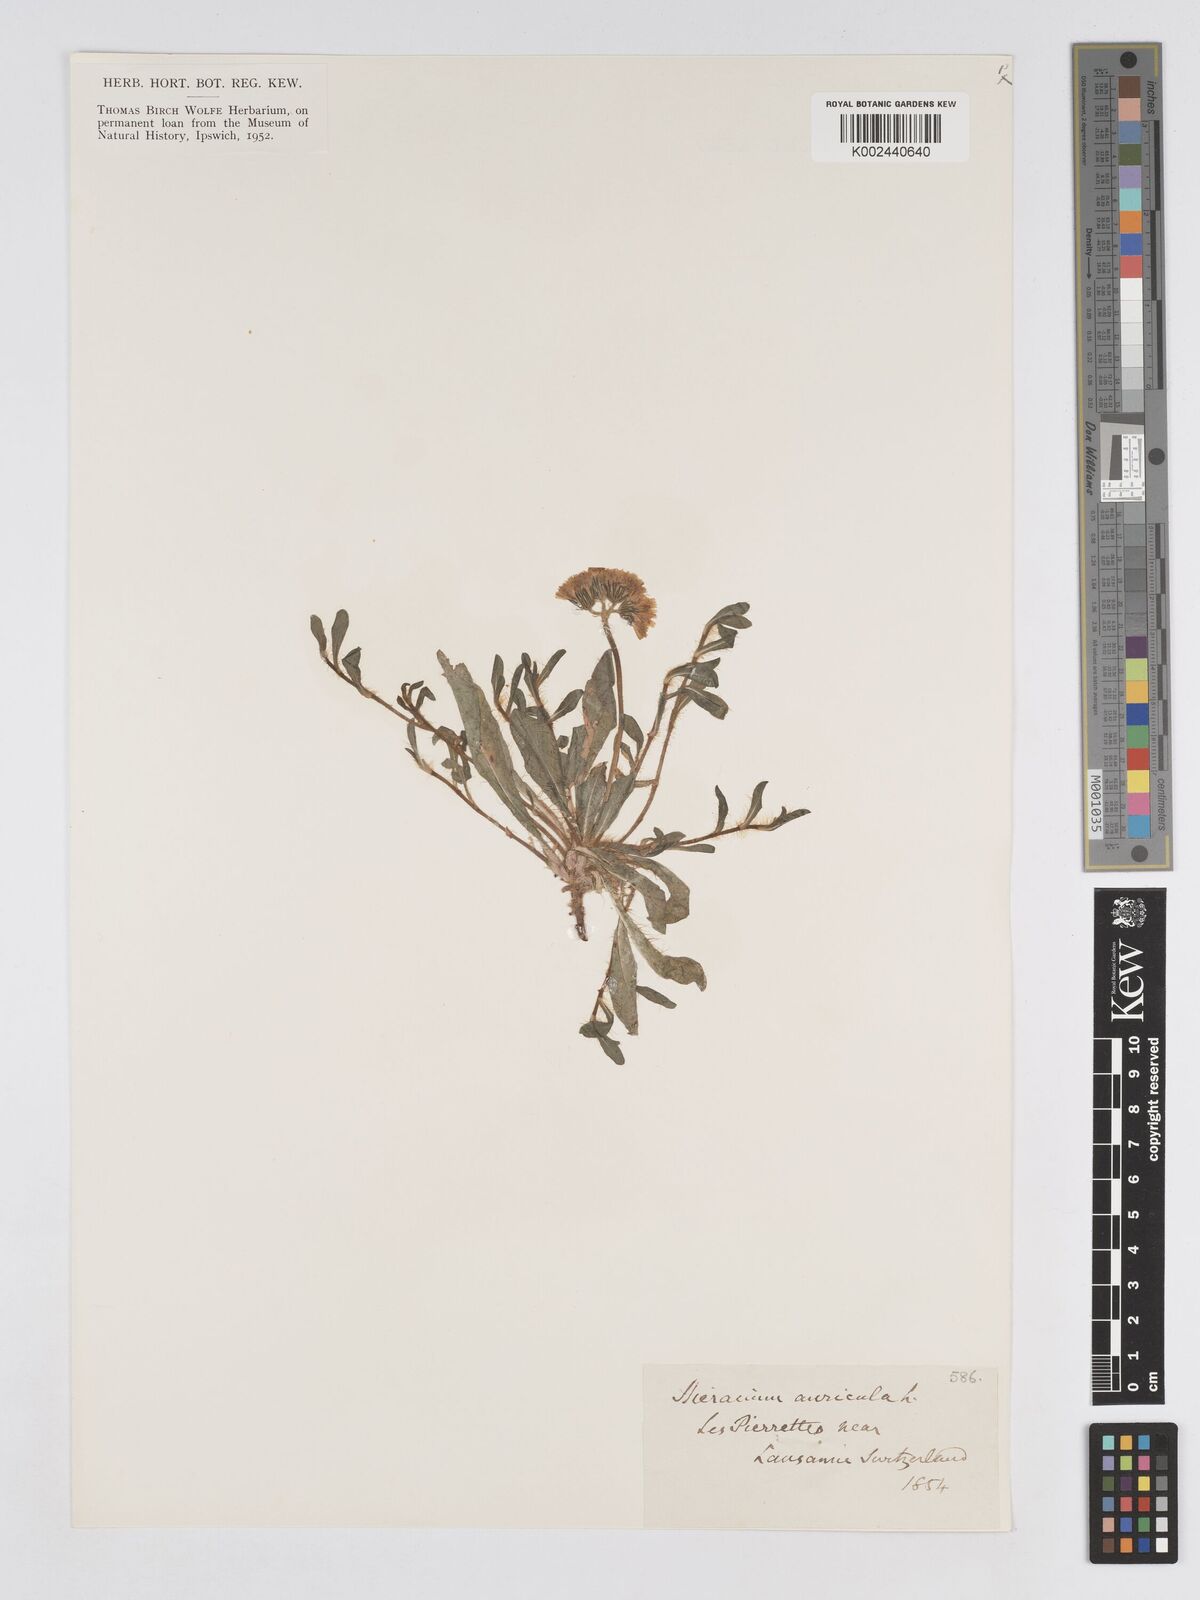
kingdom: Plantae
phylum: Tracheophyta
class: Magnoliopsida
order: Asterales
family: Asteraceae
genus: Pilosella
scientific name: Pilosella floribunda
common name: Glaucous hawkweed
